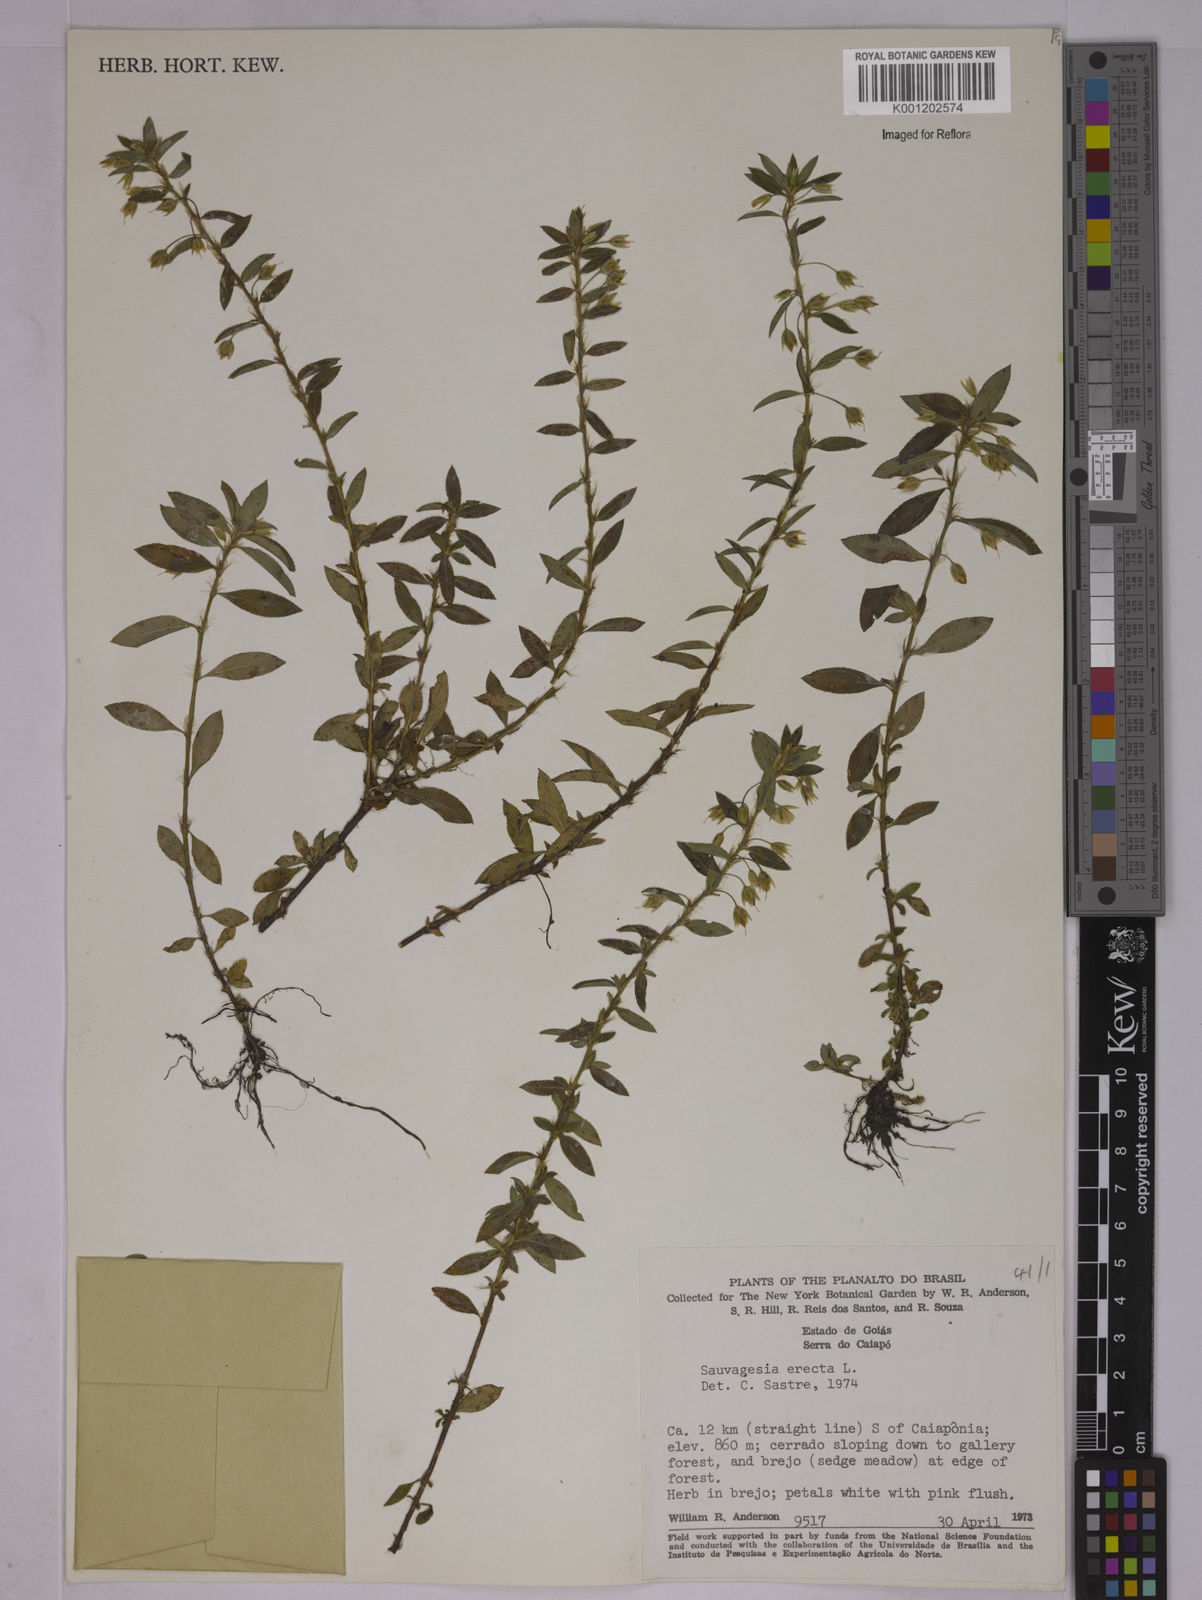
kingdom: Plantae
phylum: Tracheophyta
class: Magnoliopsida
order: Malpighiales
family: Ochnaceae
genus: Sauvagesia
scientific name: Sauvagesia erecta
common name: Creole tea
